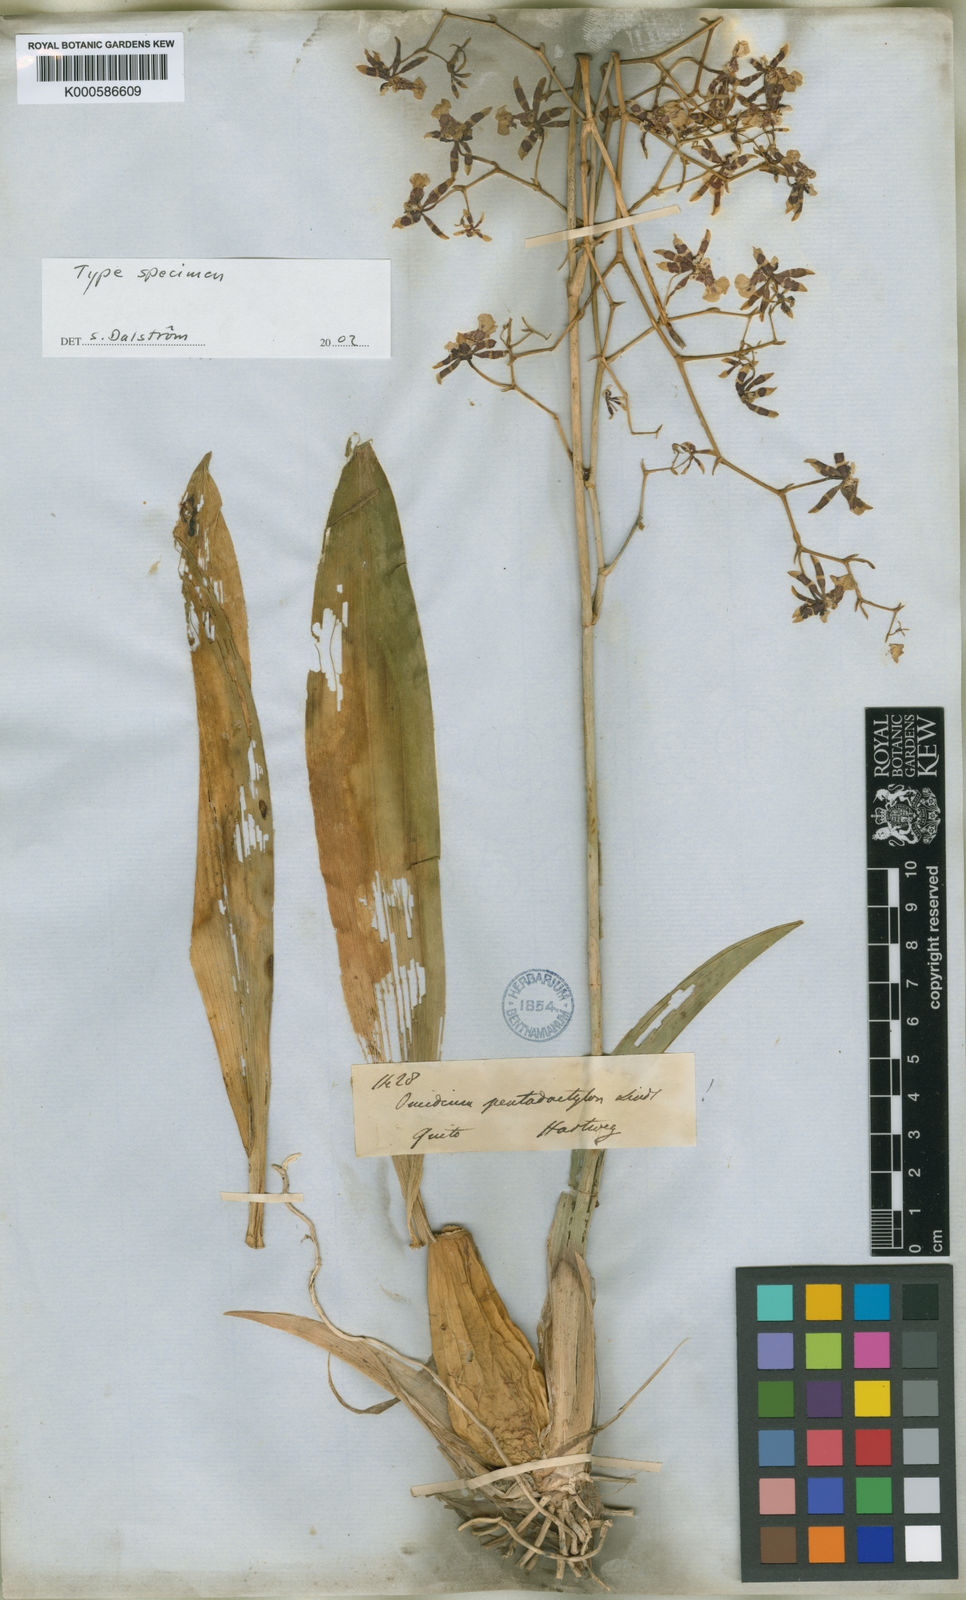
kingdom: Plantae
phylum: Tracheophyta
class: Liliopsida
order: Asparagales
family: Orchidaceae
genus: Oncidium
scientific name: Oncidium pentadactylon
